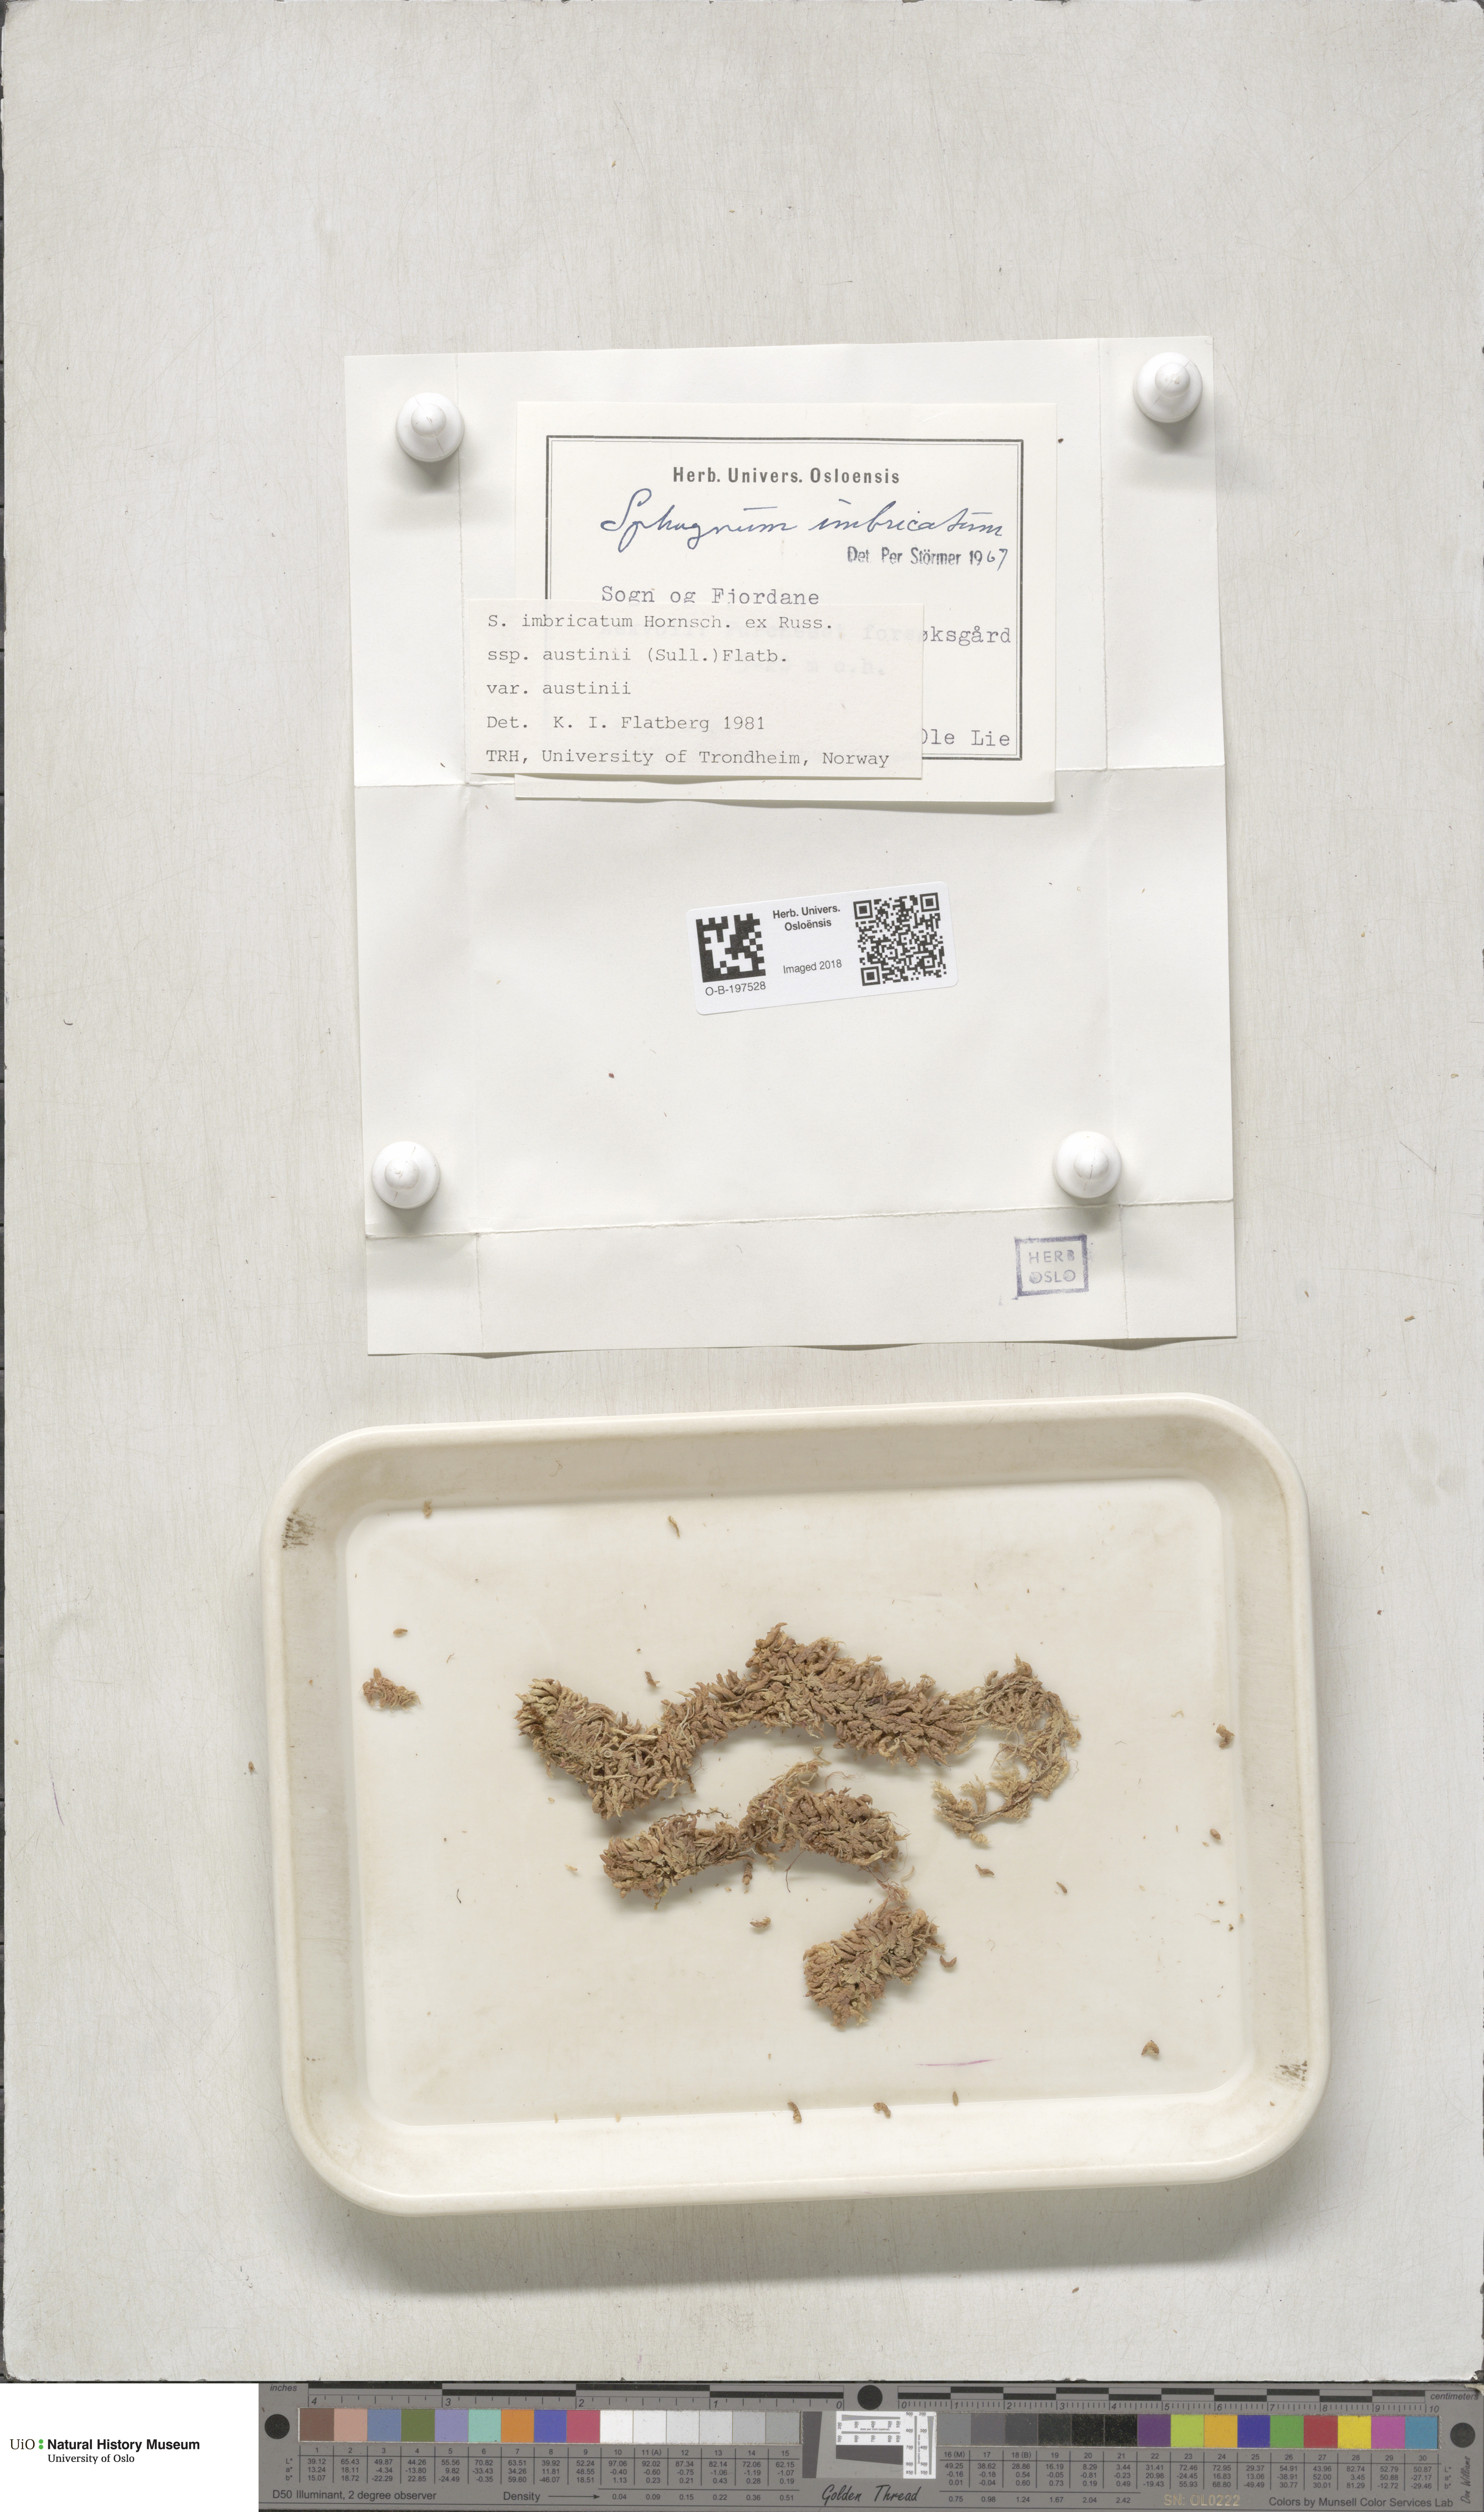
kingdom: Plantae
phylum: Bryophyta
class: Sphagnopsida
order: Sphagnales
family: Sphagnaceae
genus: Sphagnum
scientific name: Sphagnum austinii
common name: Austin's peat moss
